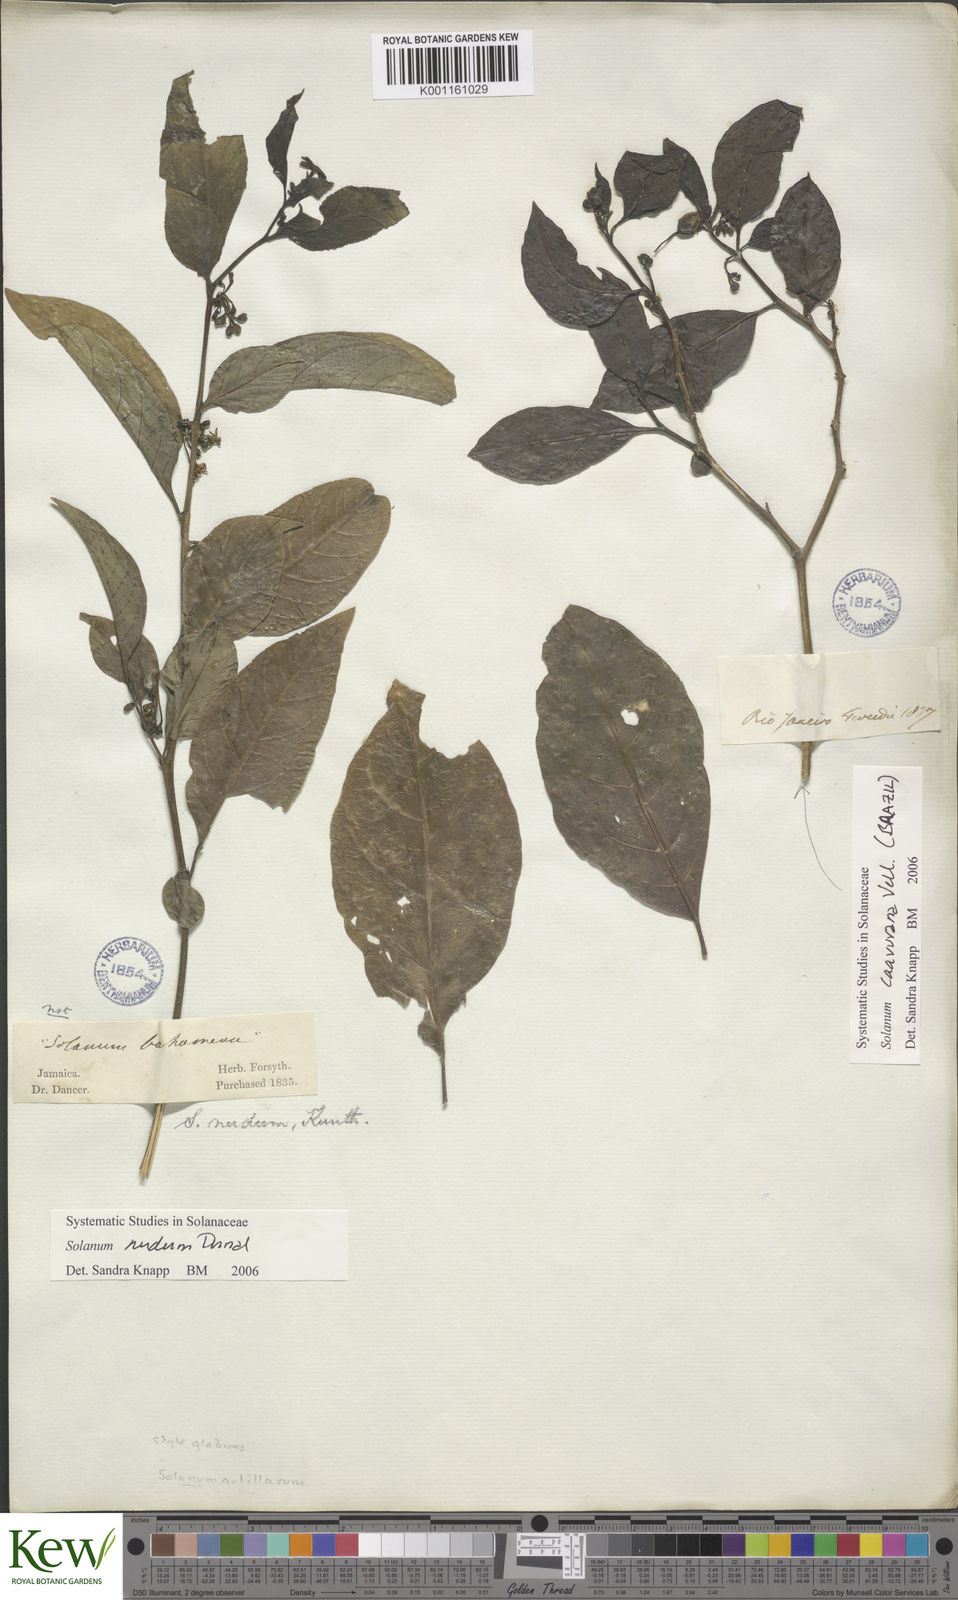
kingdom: Plantae
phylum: Tracheophyta
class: Magnoliopsida
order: Solanales
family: Solanaceae
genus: Solanum
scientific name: Solanum nudum
